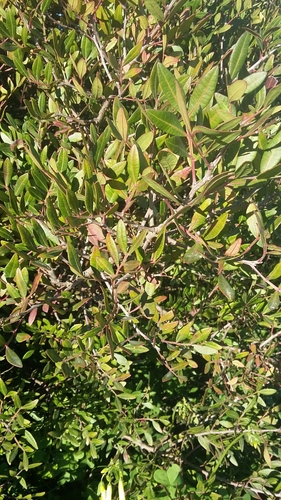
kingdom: Plantae
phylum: Tracheophyta
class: Magnoliopsida
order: Sapindales
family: Anacardiaceae
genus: Pistacia
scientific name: Pistacia lentiscus
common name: Lentisk
